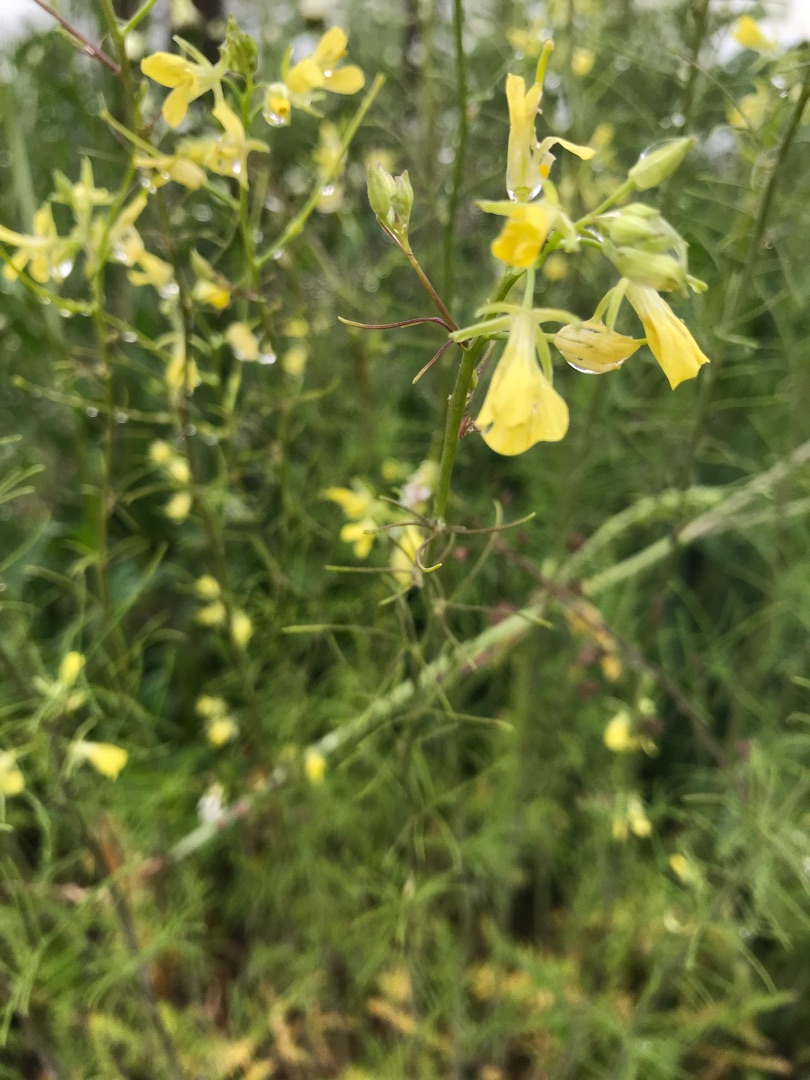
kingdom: Plantae
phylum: Tracheophyta
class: Magnoliopsida
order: Brassicales
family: Brassicaceae
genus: Sisymbrium
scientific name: Sisymbrium altissimum
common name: Ungarsk vejsennep
